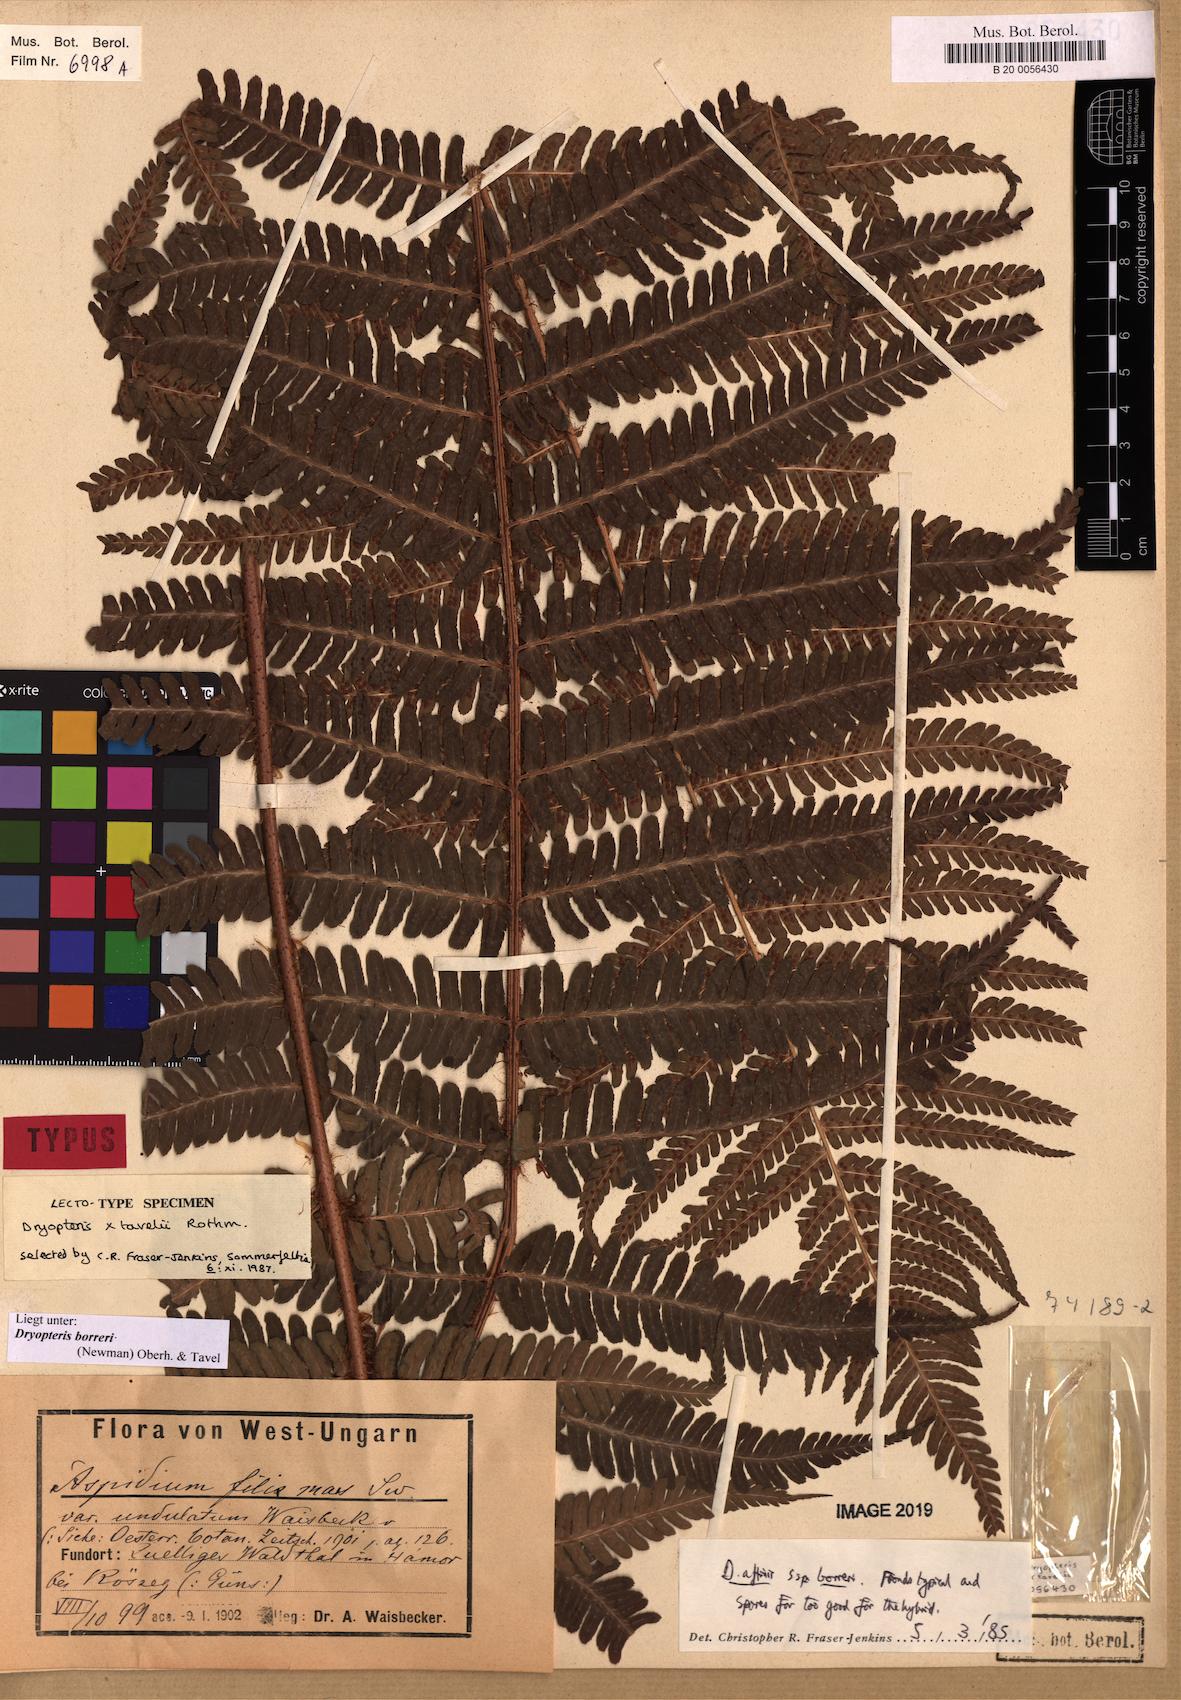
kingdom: Plantae
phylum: Tracheophyta
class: Polypodiopsida
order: Polypodiales
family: Dryopteridaceae
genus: Dryopteris
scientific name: Dryopteris borreri
